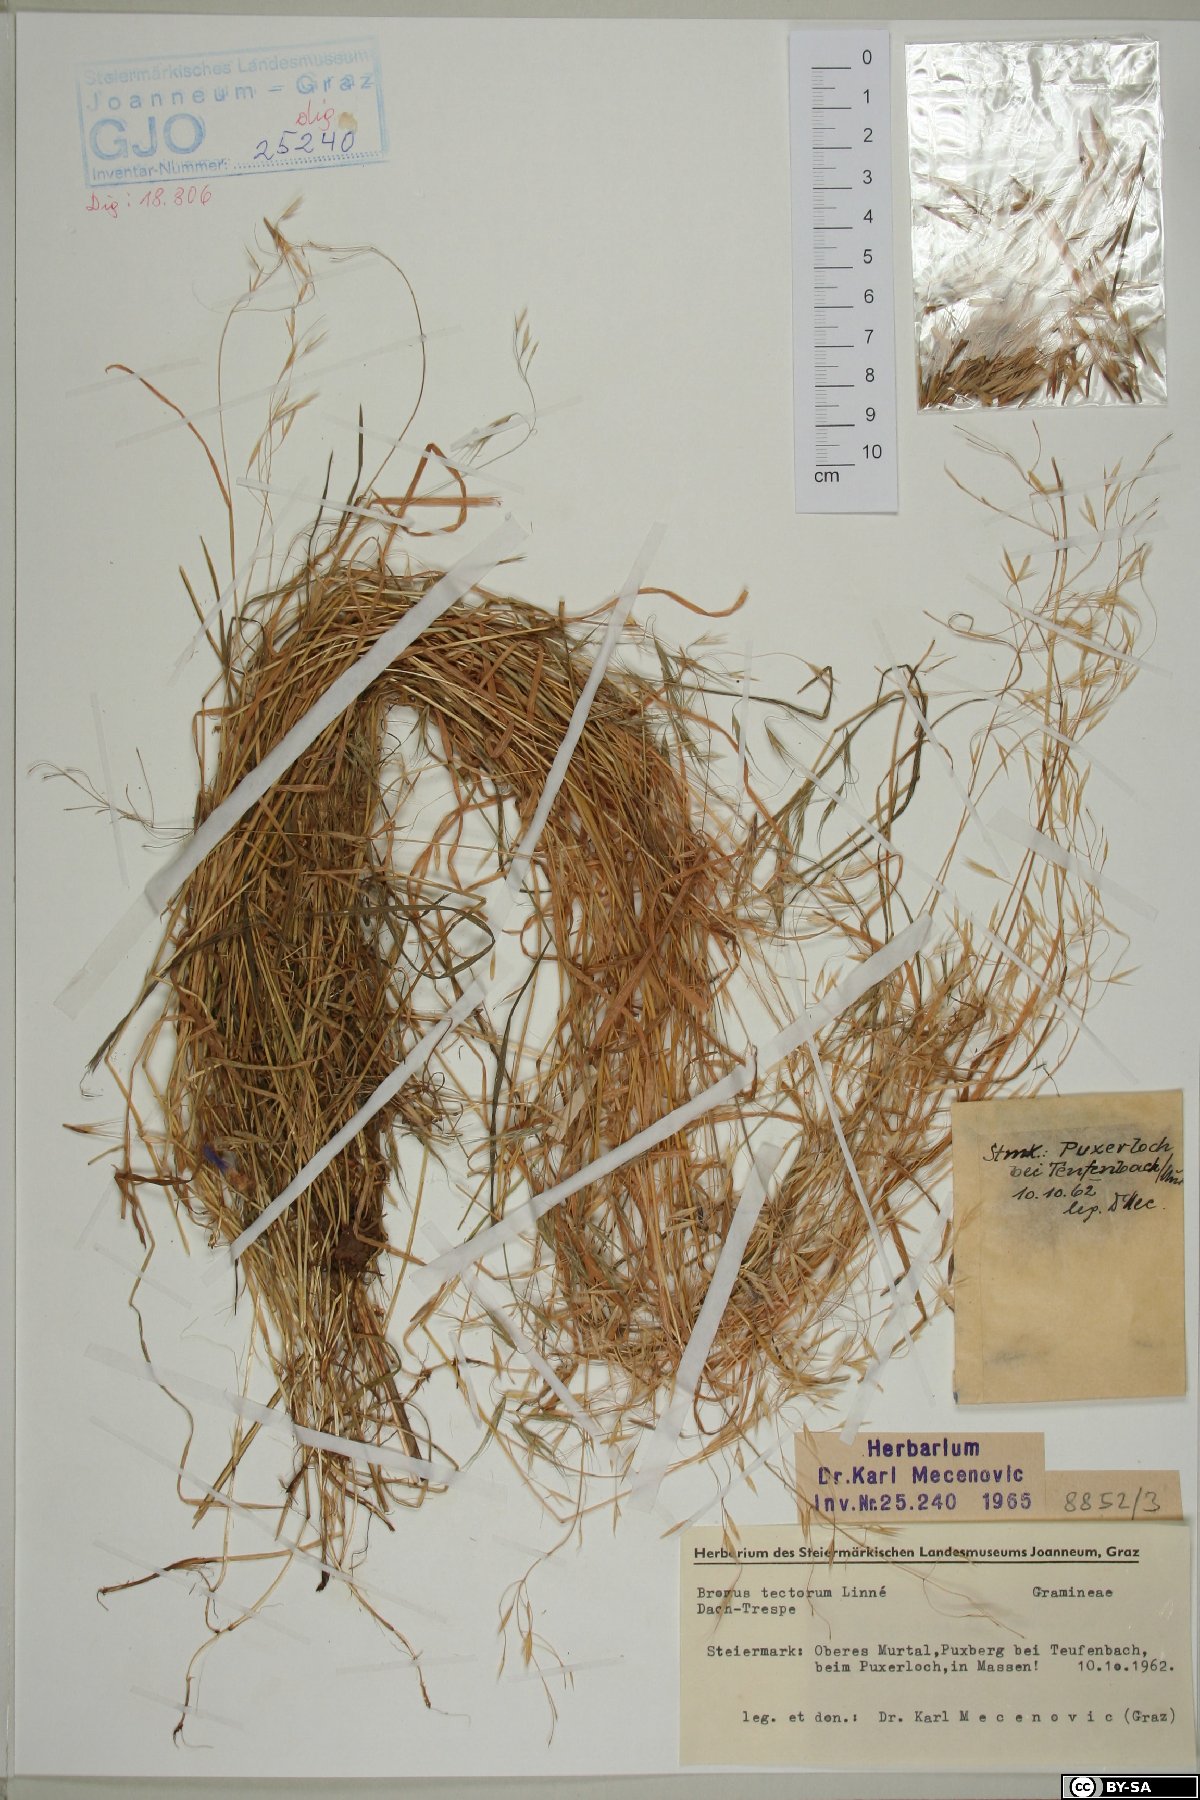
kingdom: Plantae
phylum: Tracheophyta
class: Liliopsida
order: Poales
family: Poaceae
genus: Bromus
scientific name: Bromus tectorum
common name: Cheatgrass
